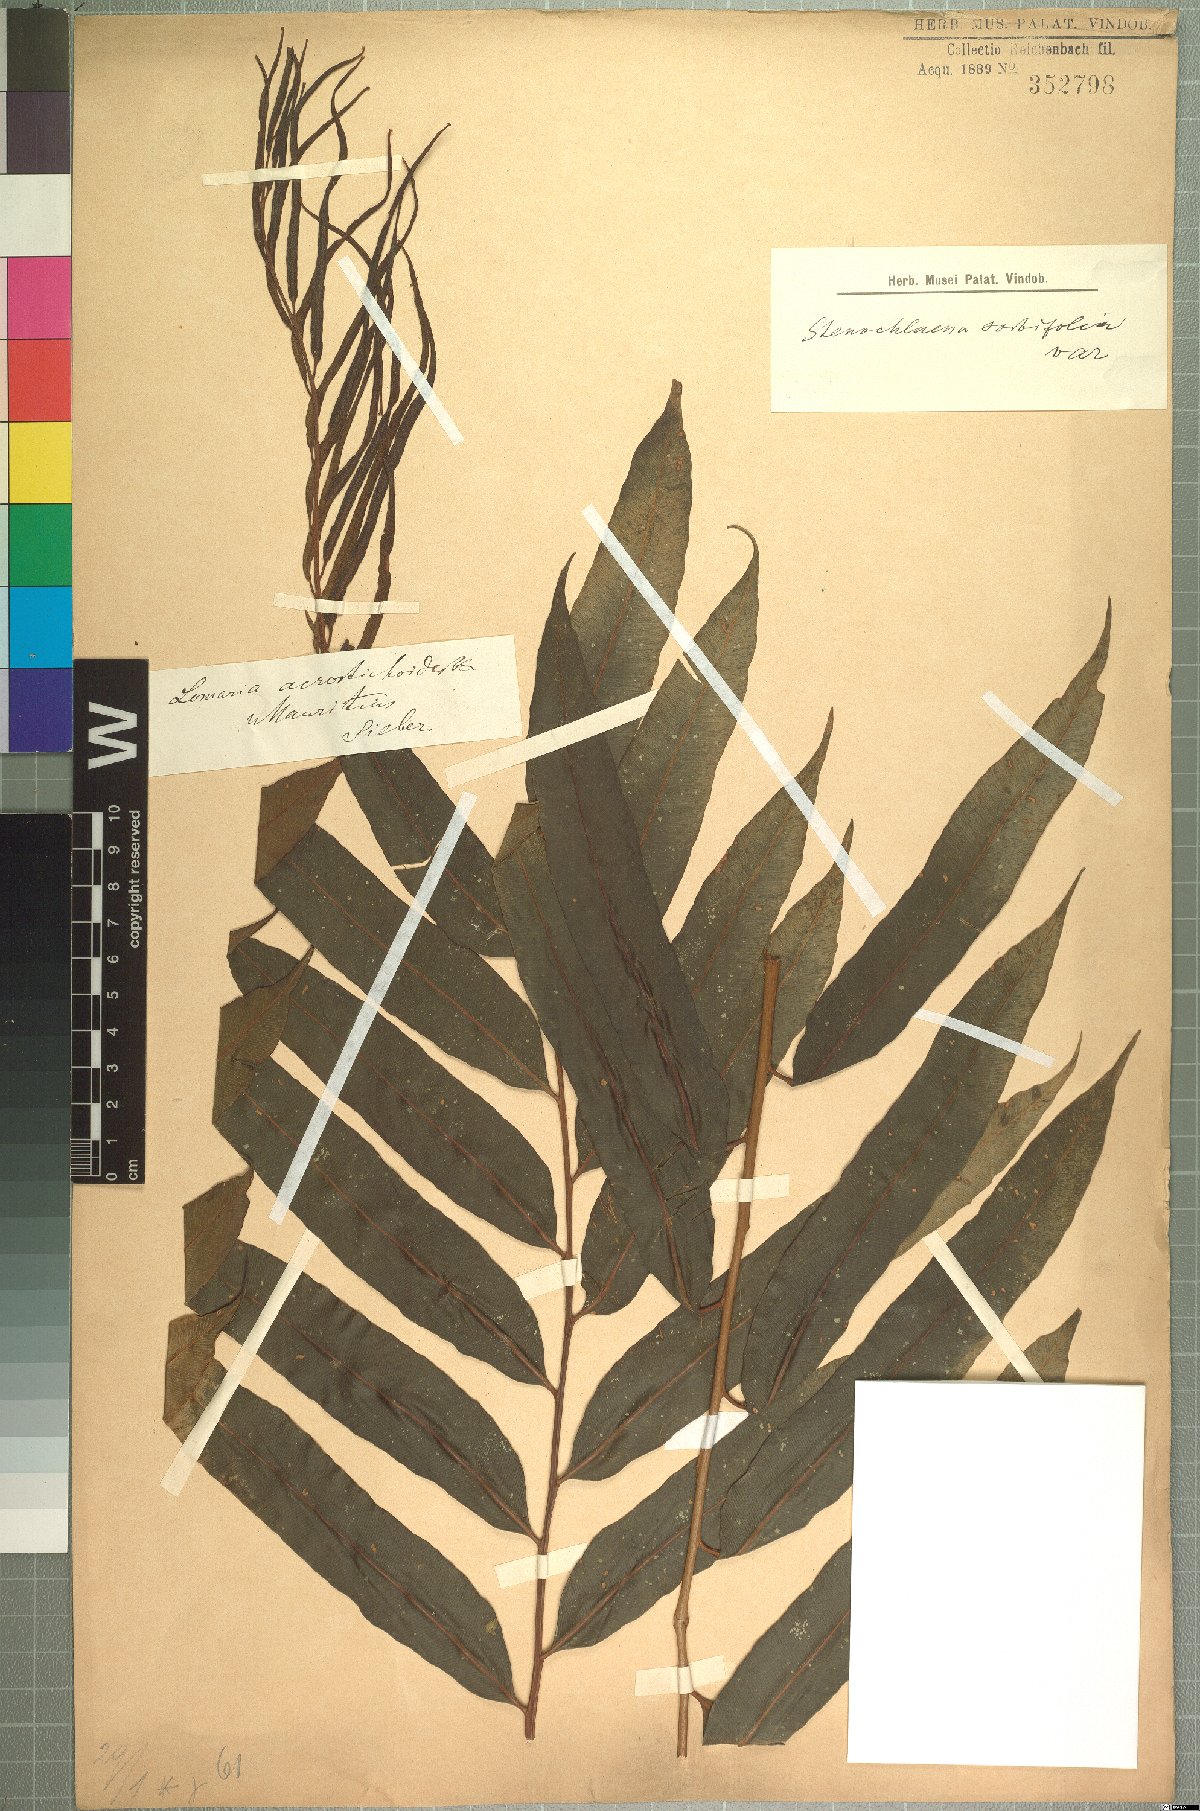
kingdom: Plantae
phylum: Tracheophyta
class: Polypodiopsida
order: Polypodiales
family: Lomariopsidaceae
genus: Lomariopsis
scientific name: Lomariopsis variabilis
